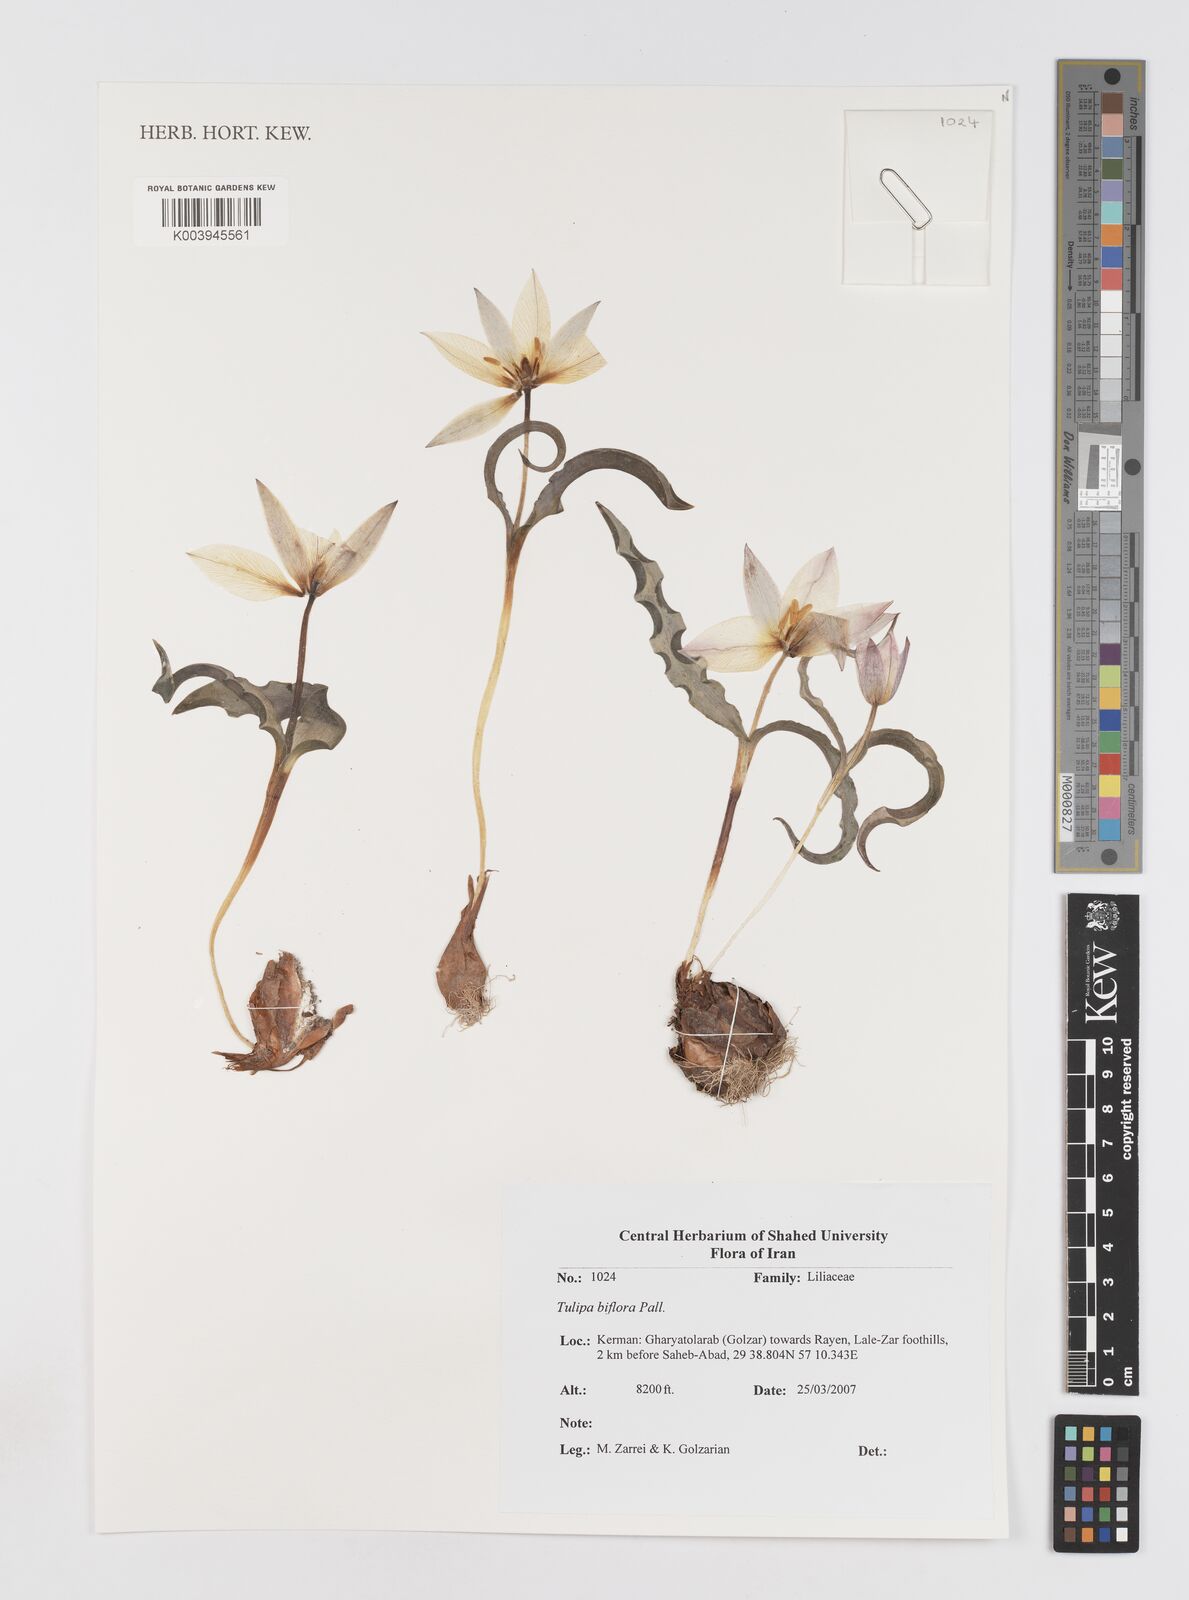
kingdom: Plantae
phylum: Tracheophyta
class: Liliopsida
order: Liliales
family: Liliaceae
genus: Tulipa
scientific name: Tulipa biflora
